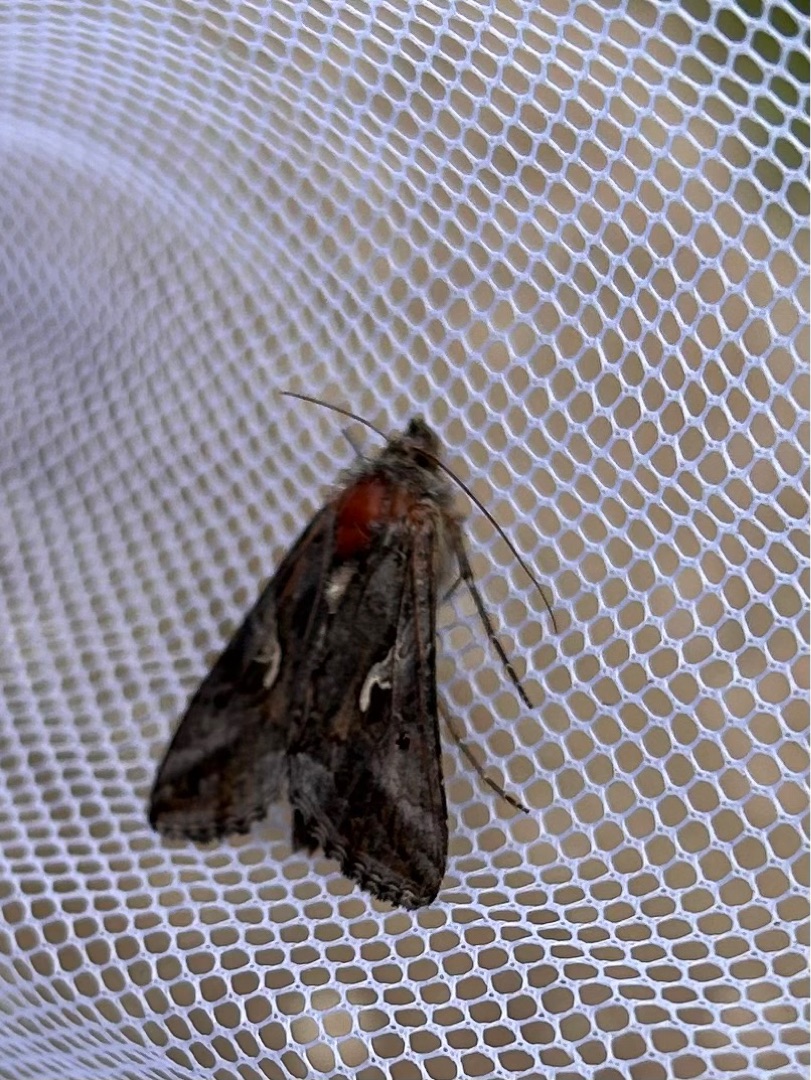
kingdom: Animalia
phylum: Arthropoda
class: Insecta
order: Lepidoptera
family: Noctuidae
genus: Autographa
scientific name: Autographa gamma
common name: Gammaugle
